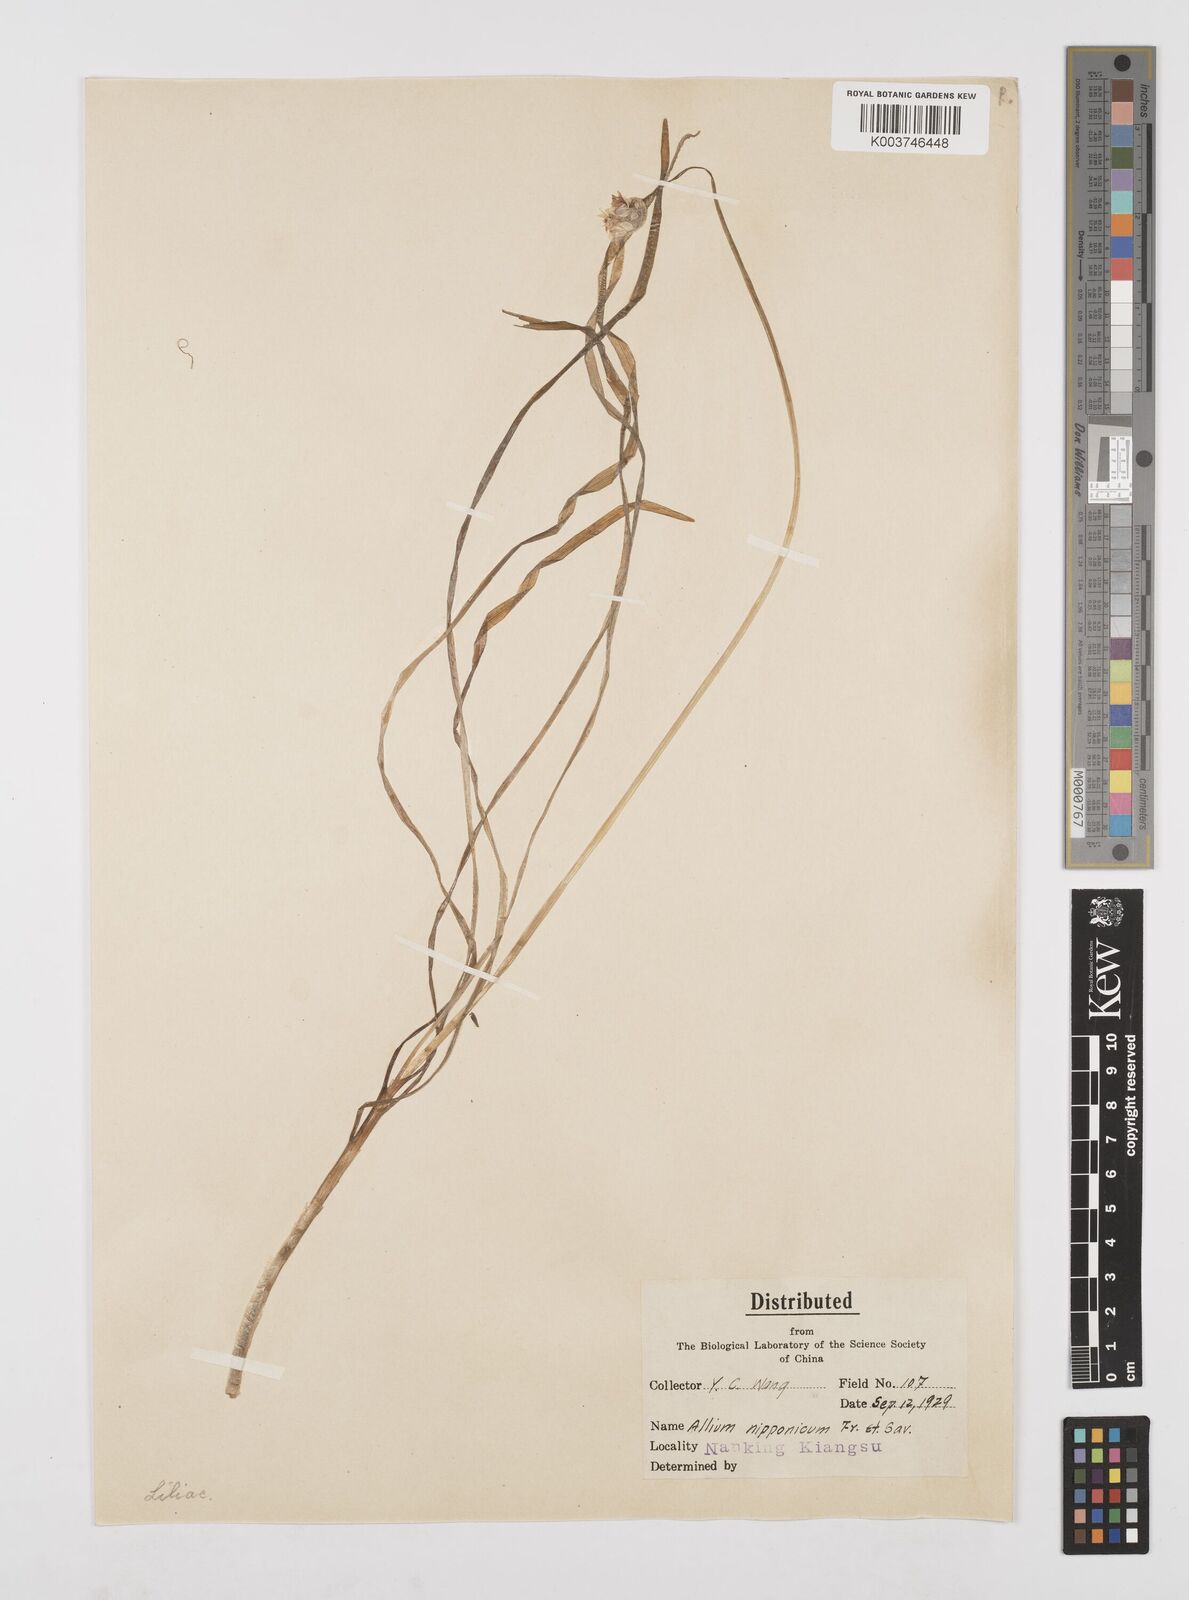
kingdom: Plantae
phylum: Tracheophyta
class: Liliopsida
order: Asparagales
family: Amaryllidaceae
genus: Allium
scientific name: Allium macrostemon
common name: Chinese garlic
